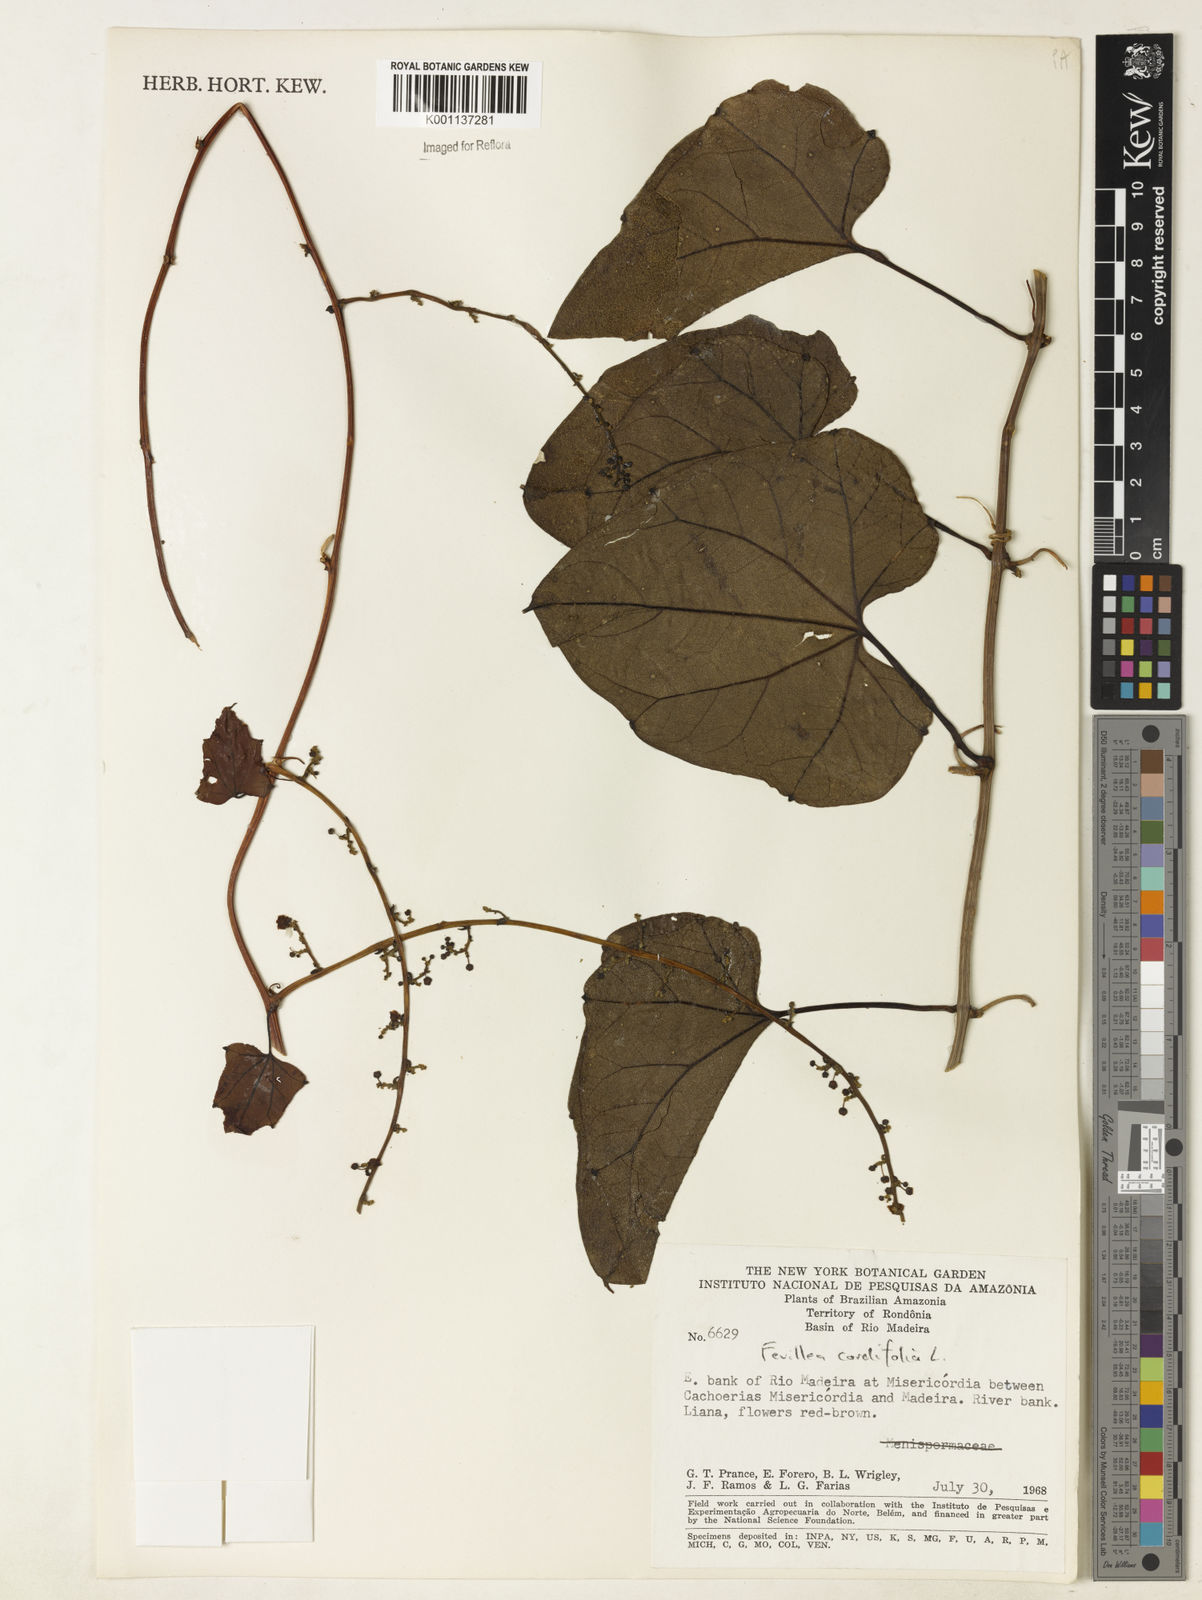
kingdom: Plantae
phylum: Tracheophyta
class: Magnoliopsida
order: Cucurbitales
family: Cucurbitaceae
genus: Fevillea
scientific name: Fevillea cordifolia
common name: Antidote-vine
